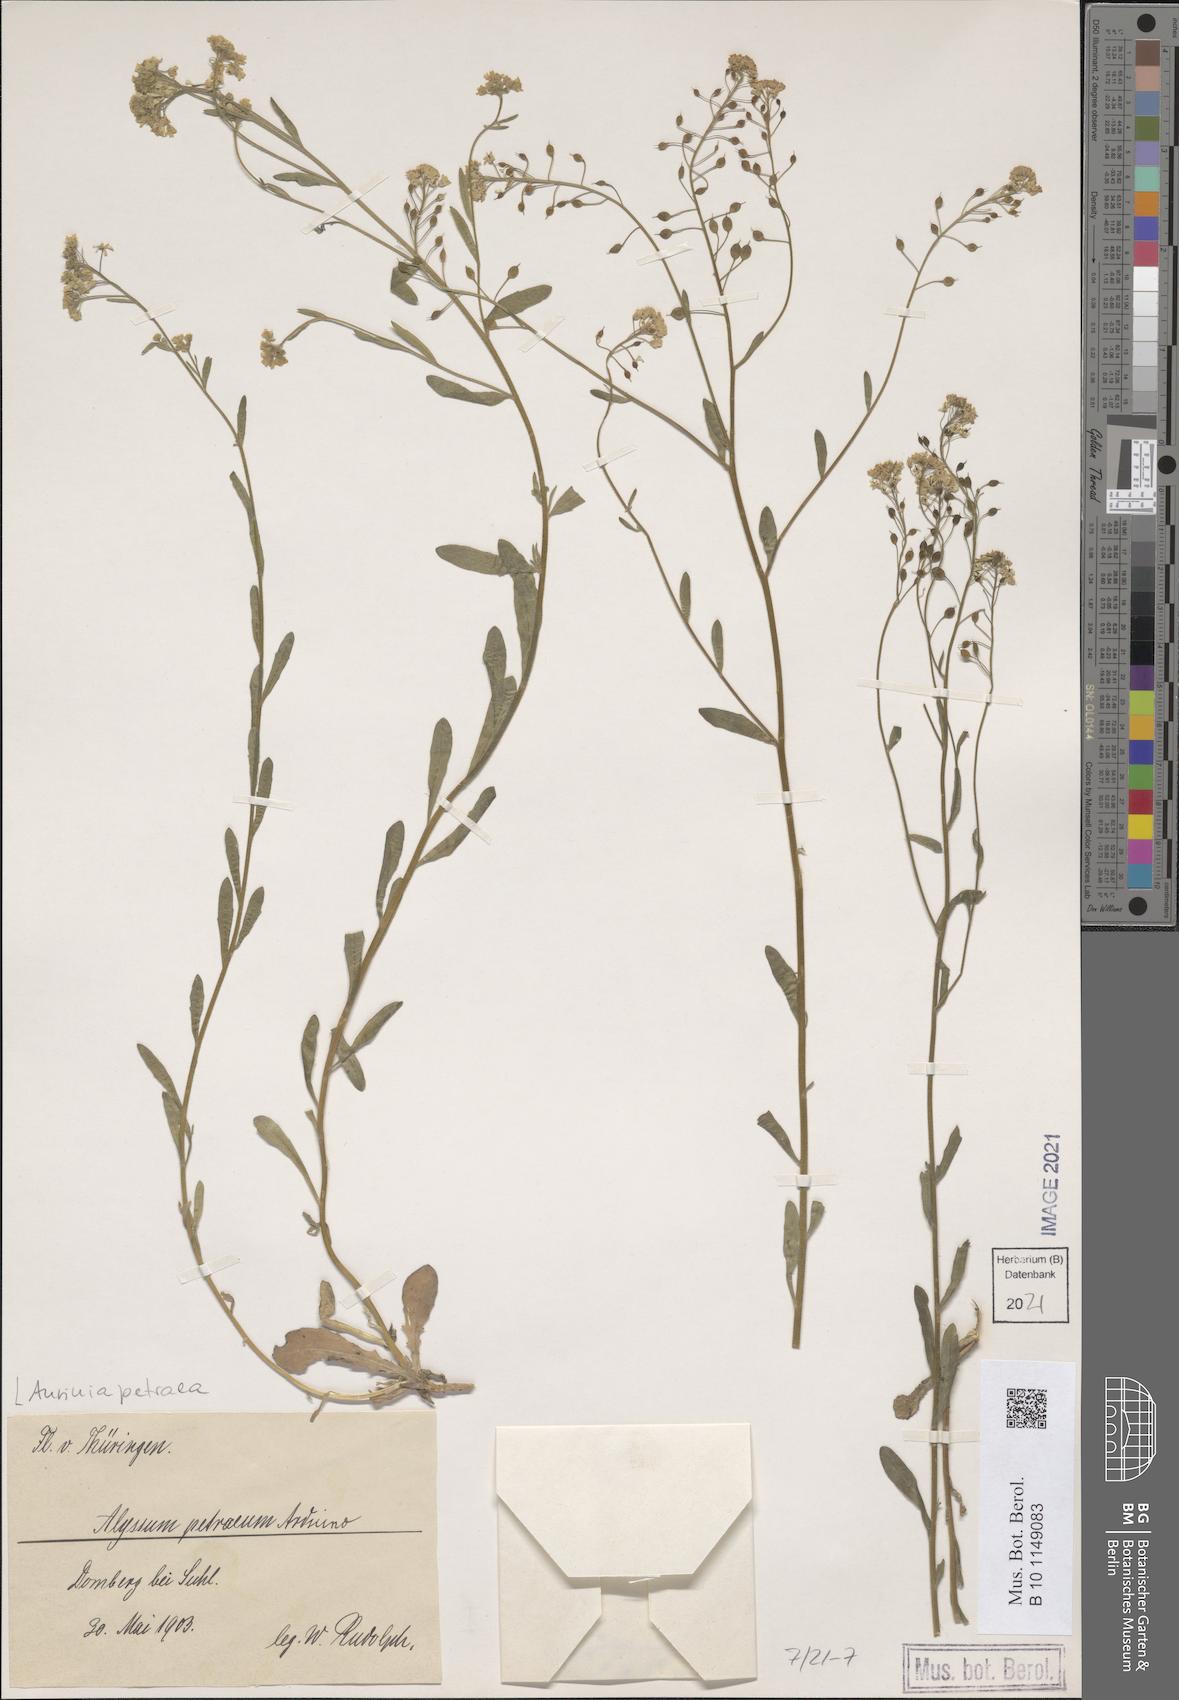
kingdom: Plantae
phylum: Tracheophyta
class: Magnoliopsida
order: Brassicales
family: Brassicaceae
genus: Aurinia
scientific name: Aurinia petraea
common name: Goldentuft
